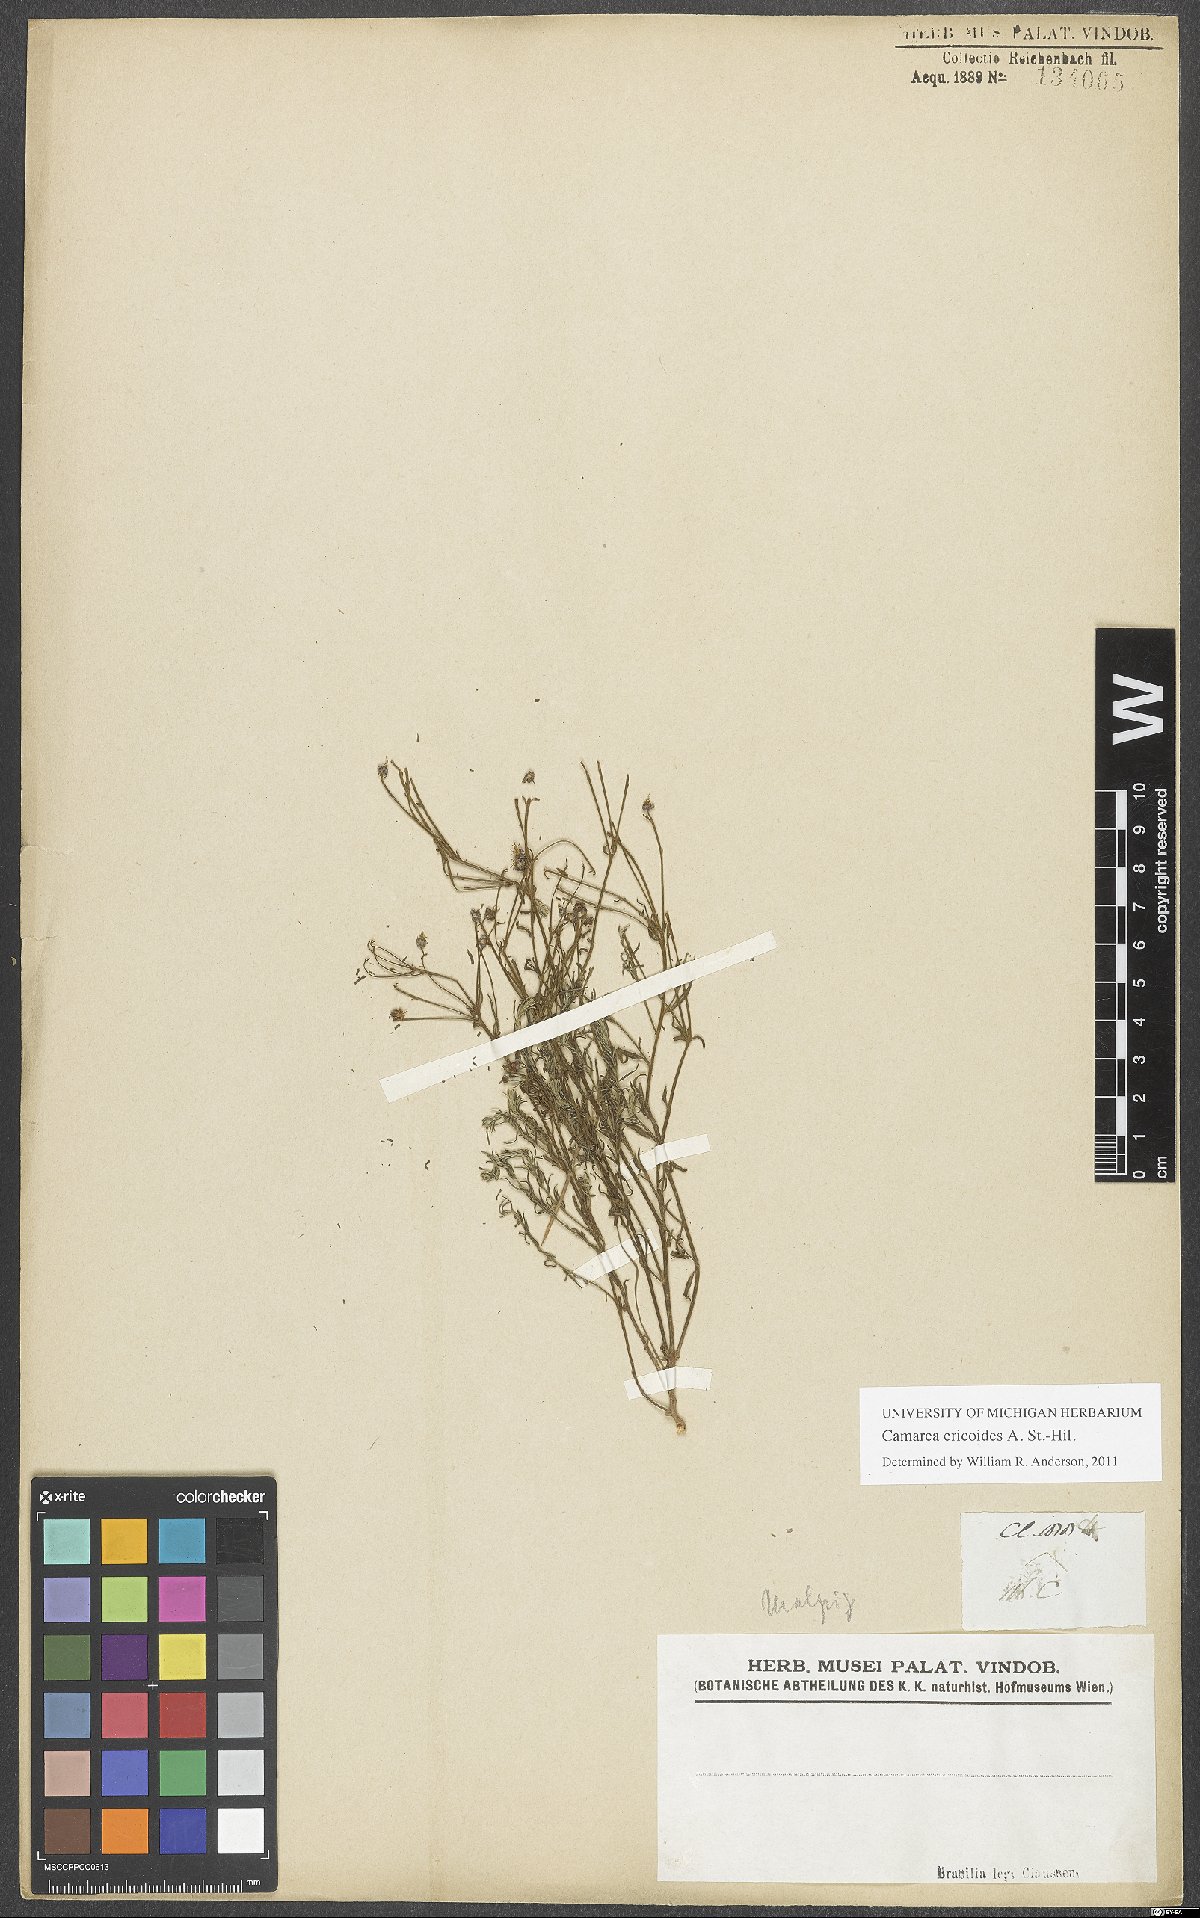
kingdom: Plantae
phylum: Tracheophyta
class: Magnoliopsida
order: Malpighiales
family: Malpighiaceae
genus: Camarea
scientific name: Camarea ericoides
